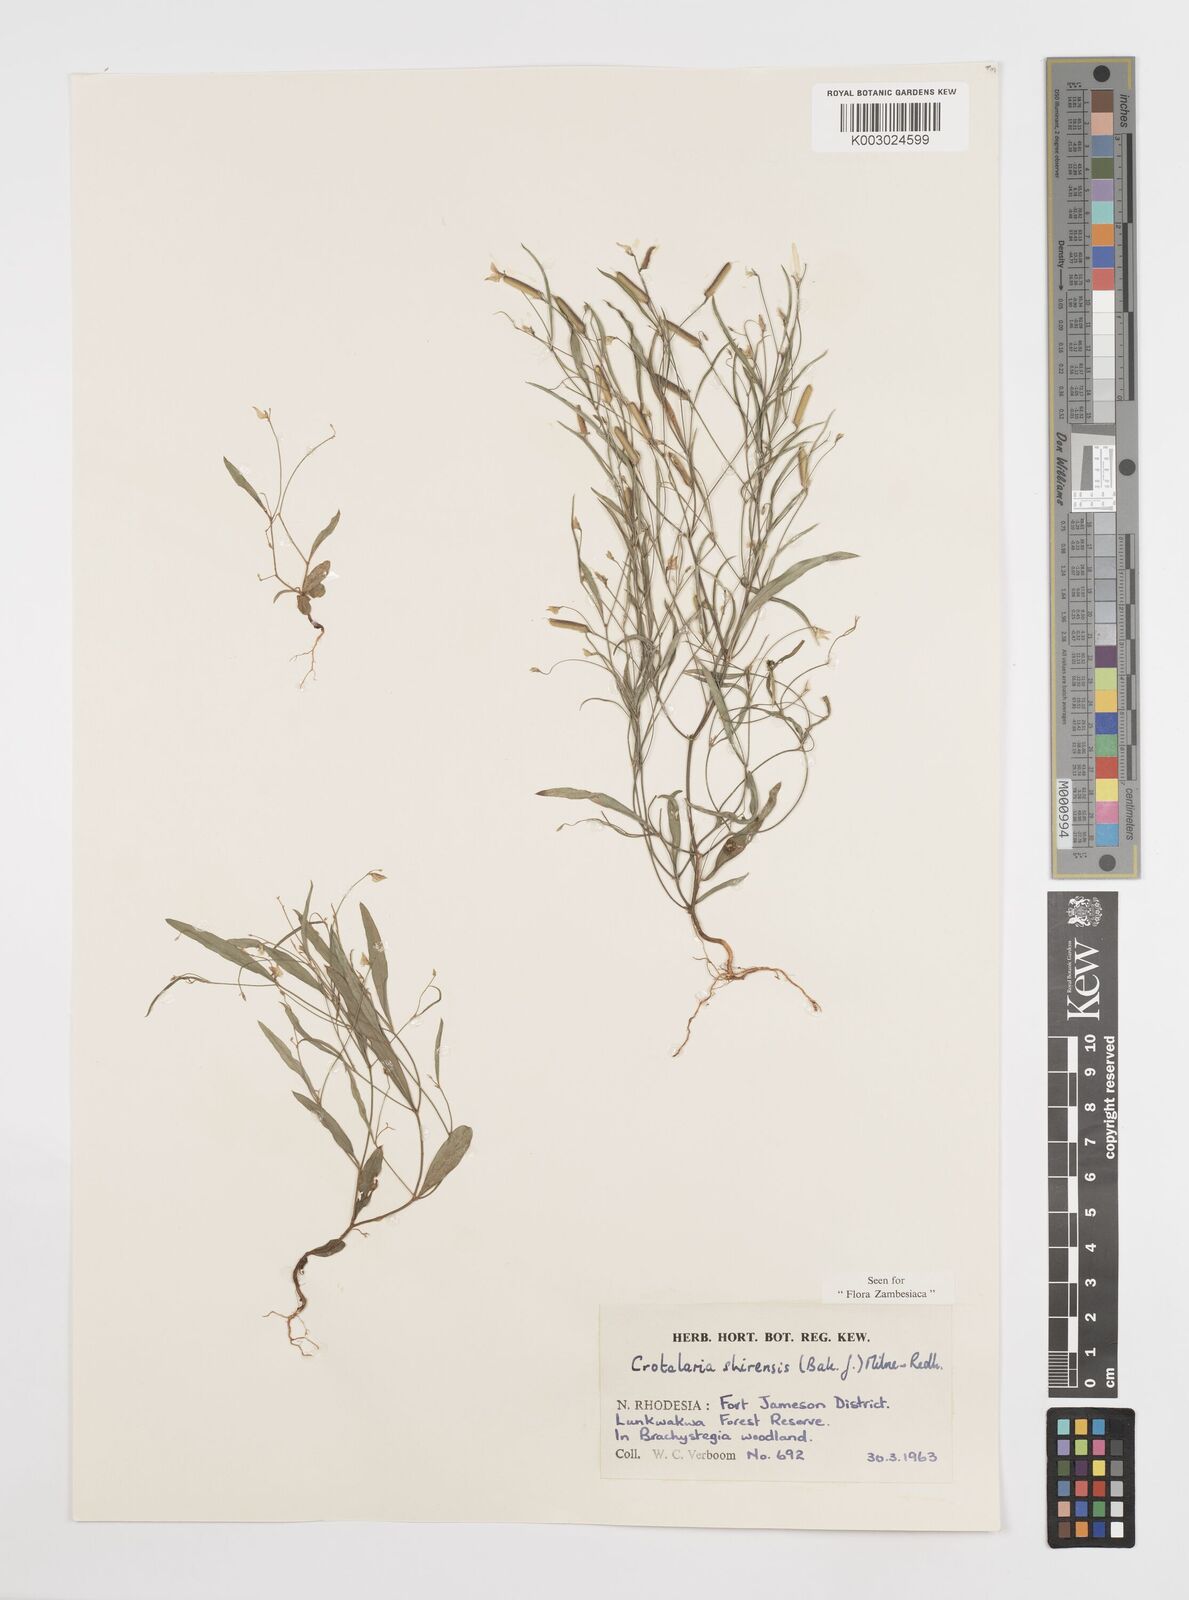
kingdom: Plantae
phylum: Tracheophyta
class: Magnoliopsida
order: Fabales
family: Fabaceae
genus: Crotalaria
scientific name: Crotalaria shirensis
